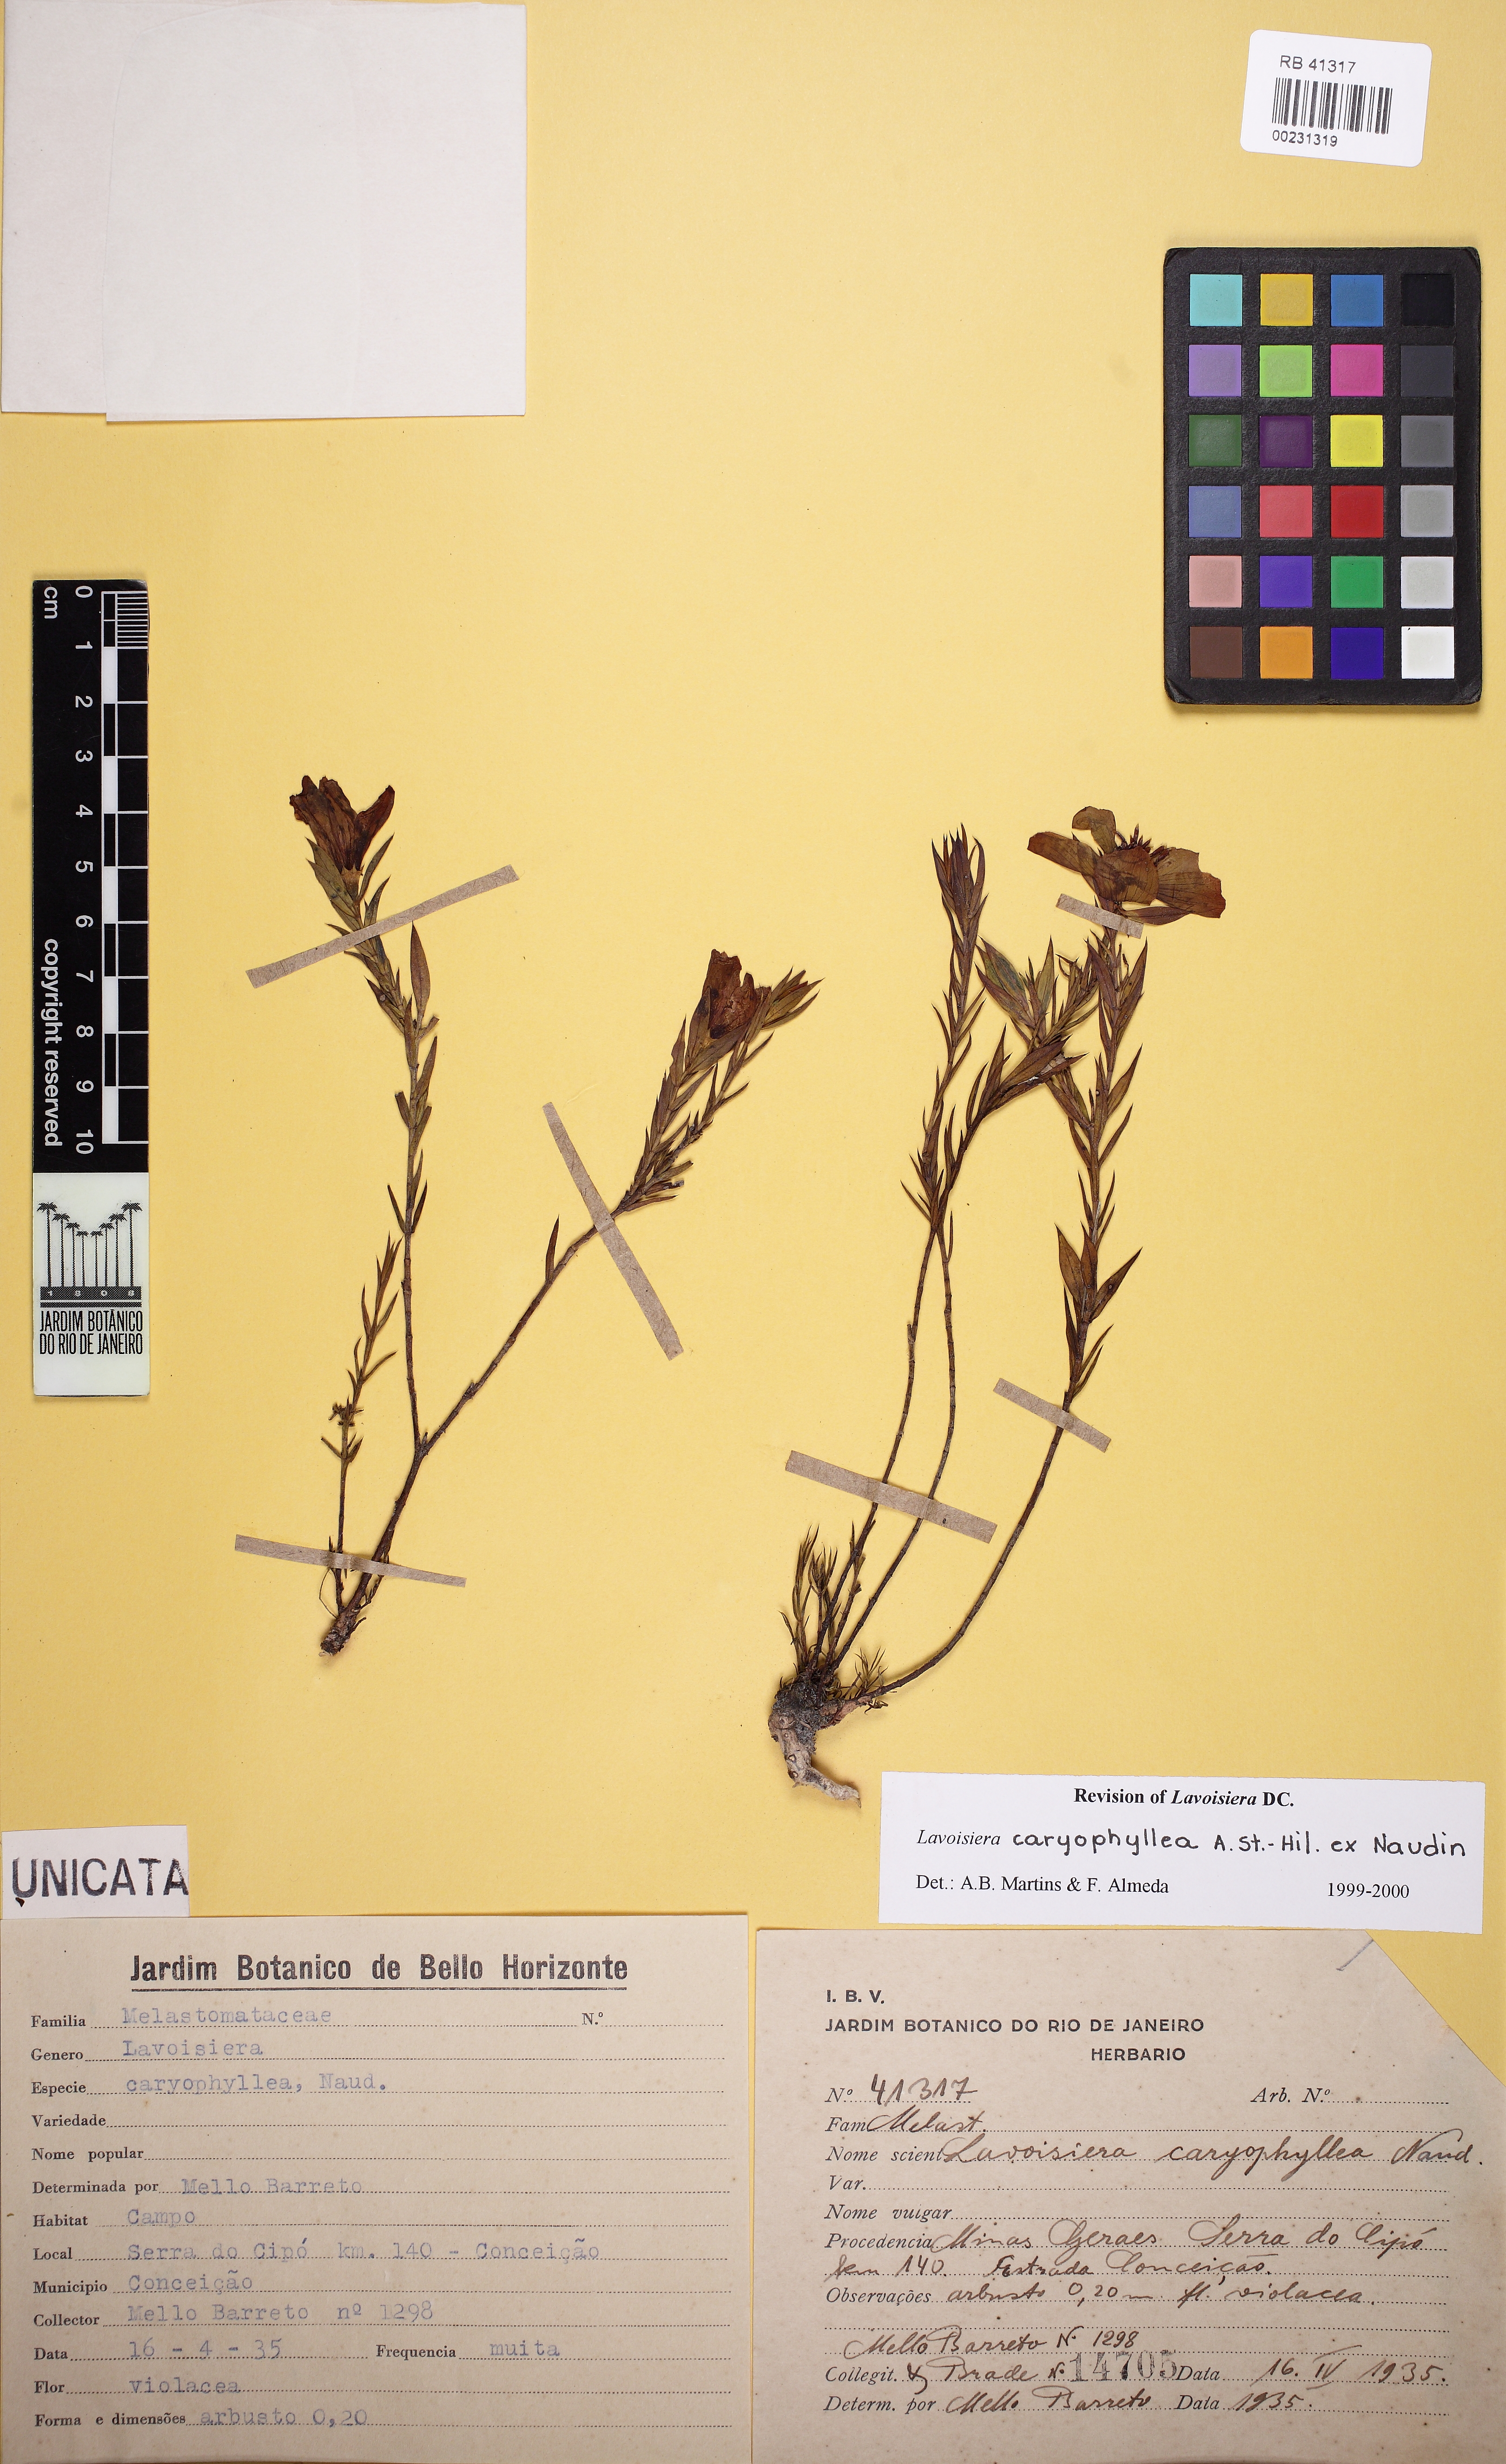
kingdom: Plantae
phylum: Tracheophyta
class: Magnoliopsida
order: Myrtales
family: Melastomataceae
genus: Microlicia
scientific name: Microlicia caryophyllea
